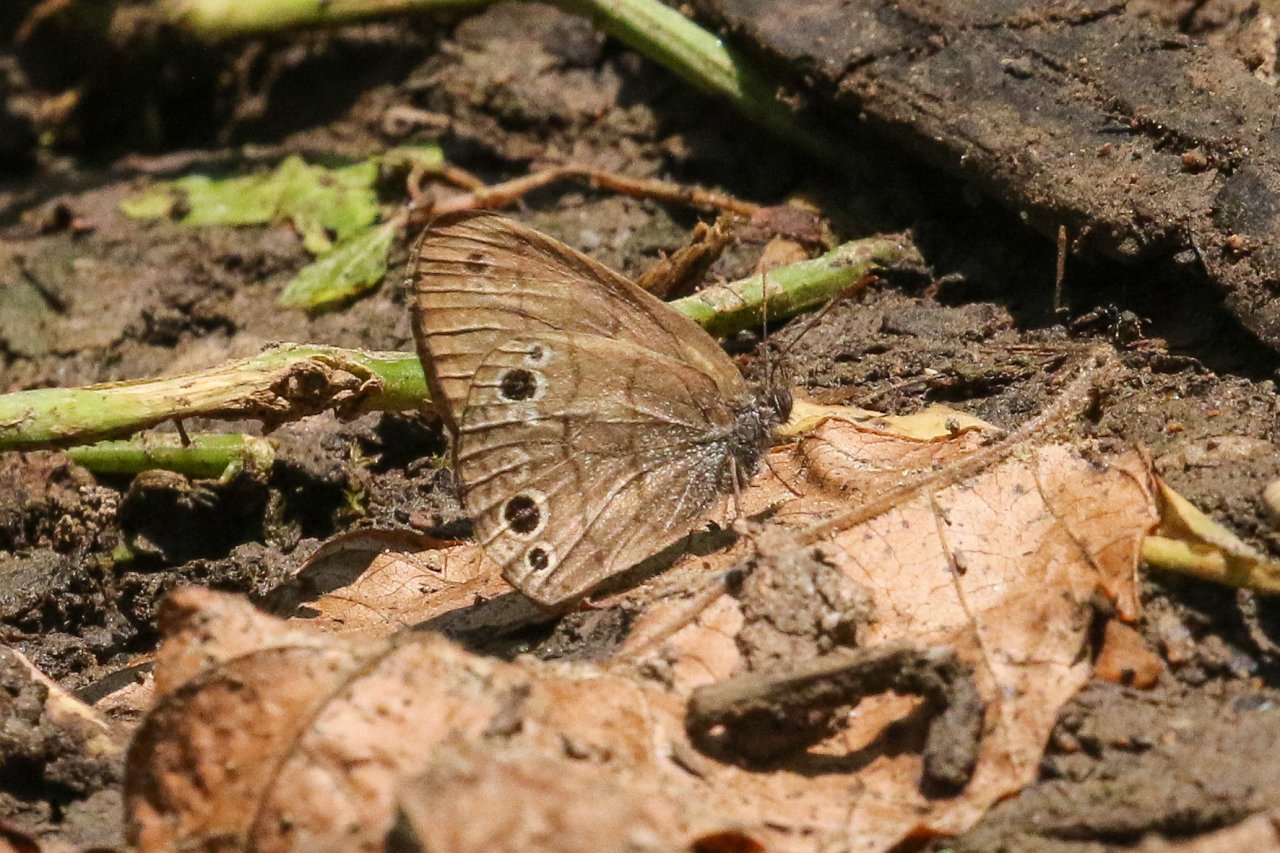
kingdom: Animalia
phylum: Arthropoda
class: Insecta
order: Lepidoptera
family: Nymphalidae
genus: Hermeuptychia
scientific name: Hermeuptychia hermes
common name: Carolina Satyr
